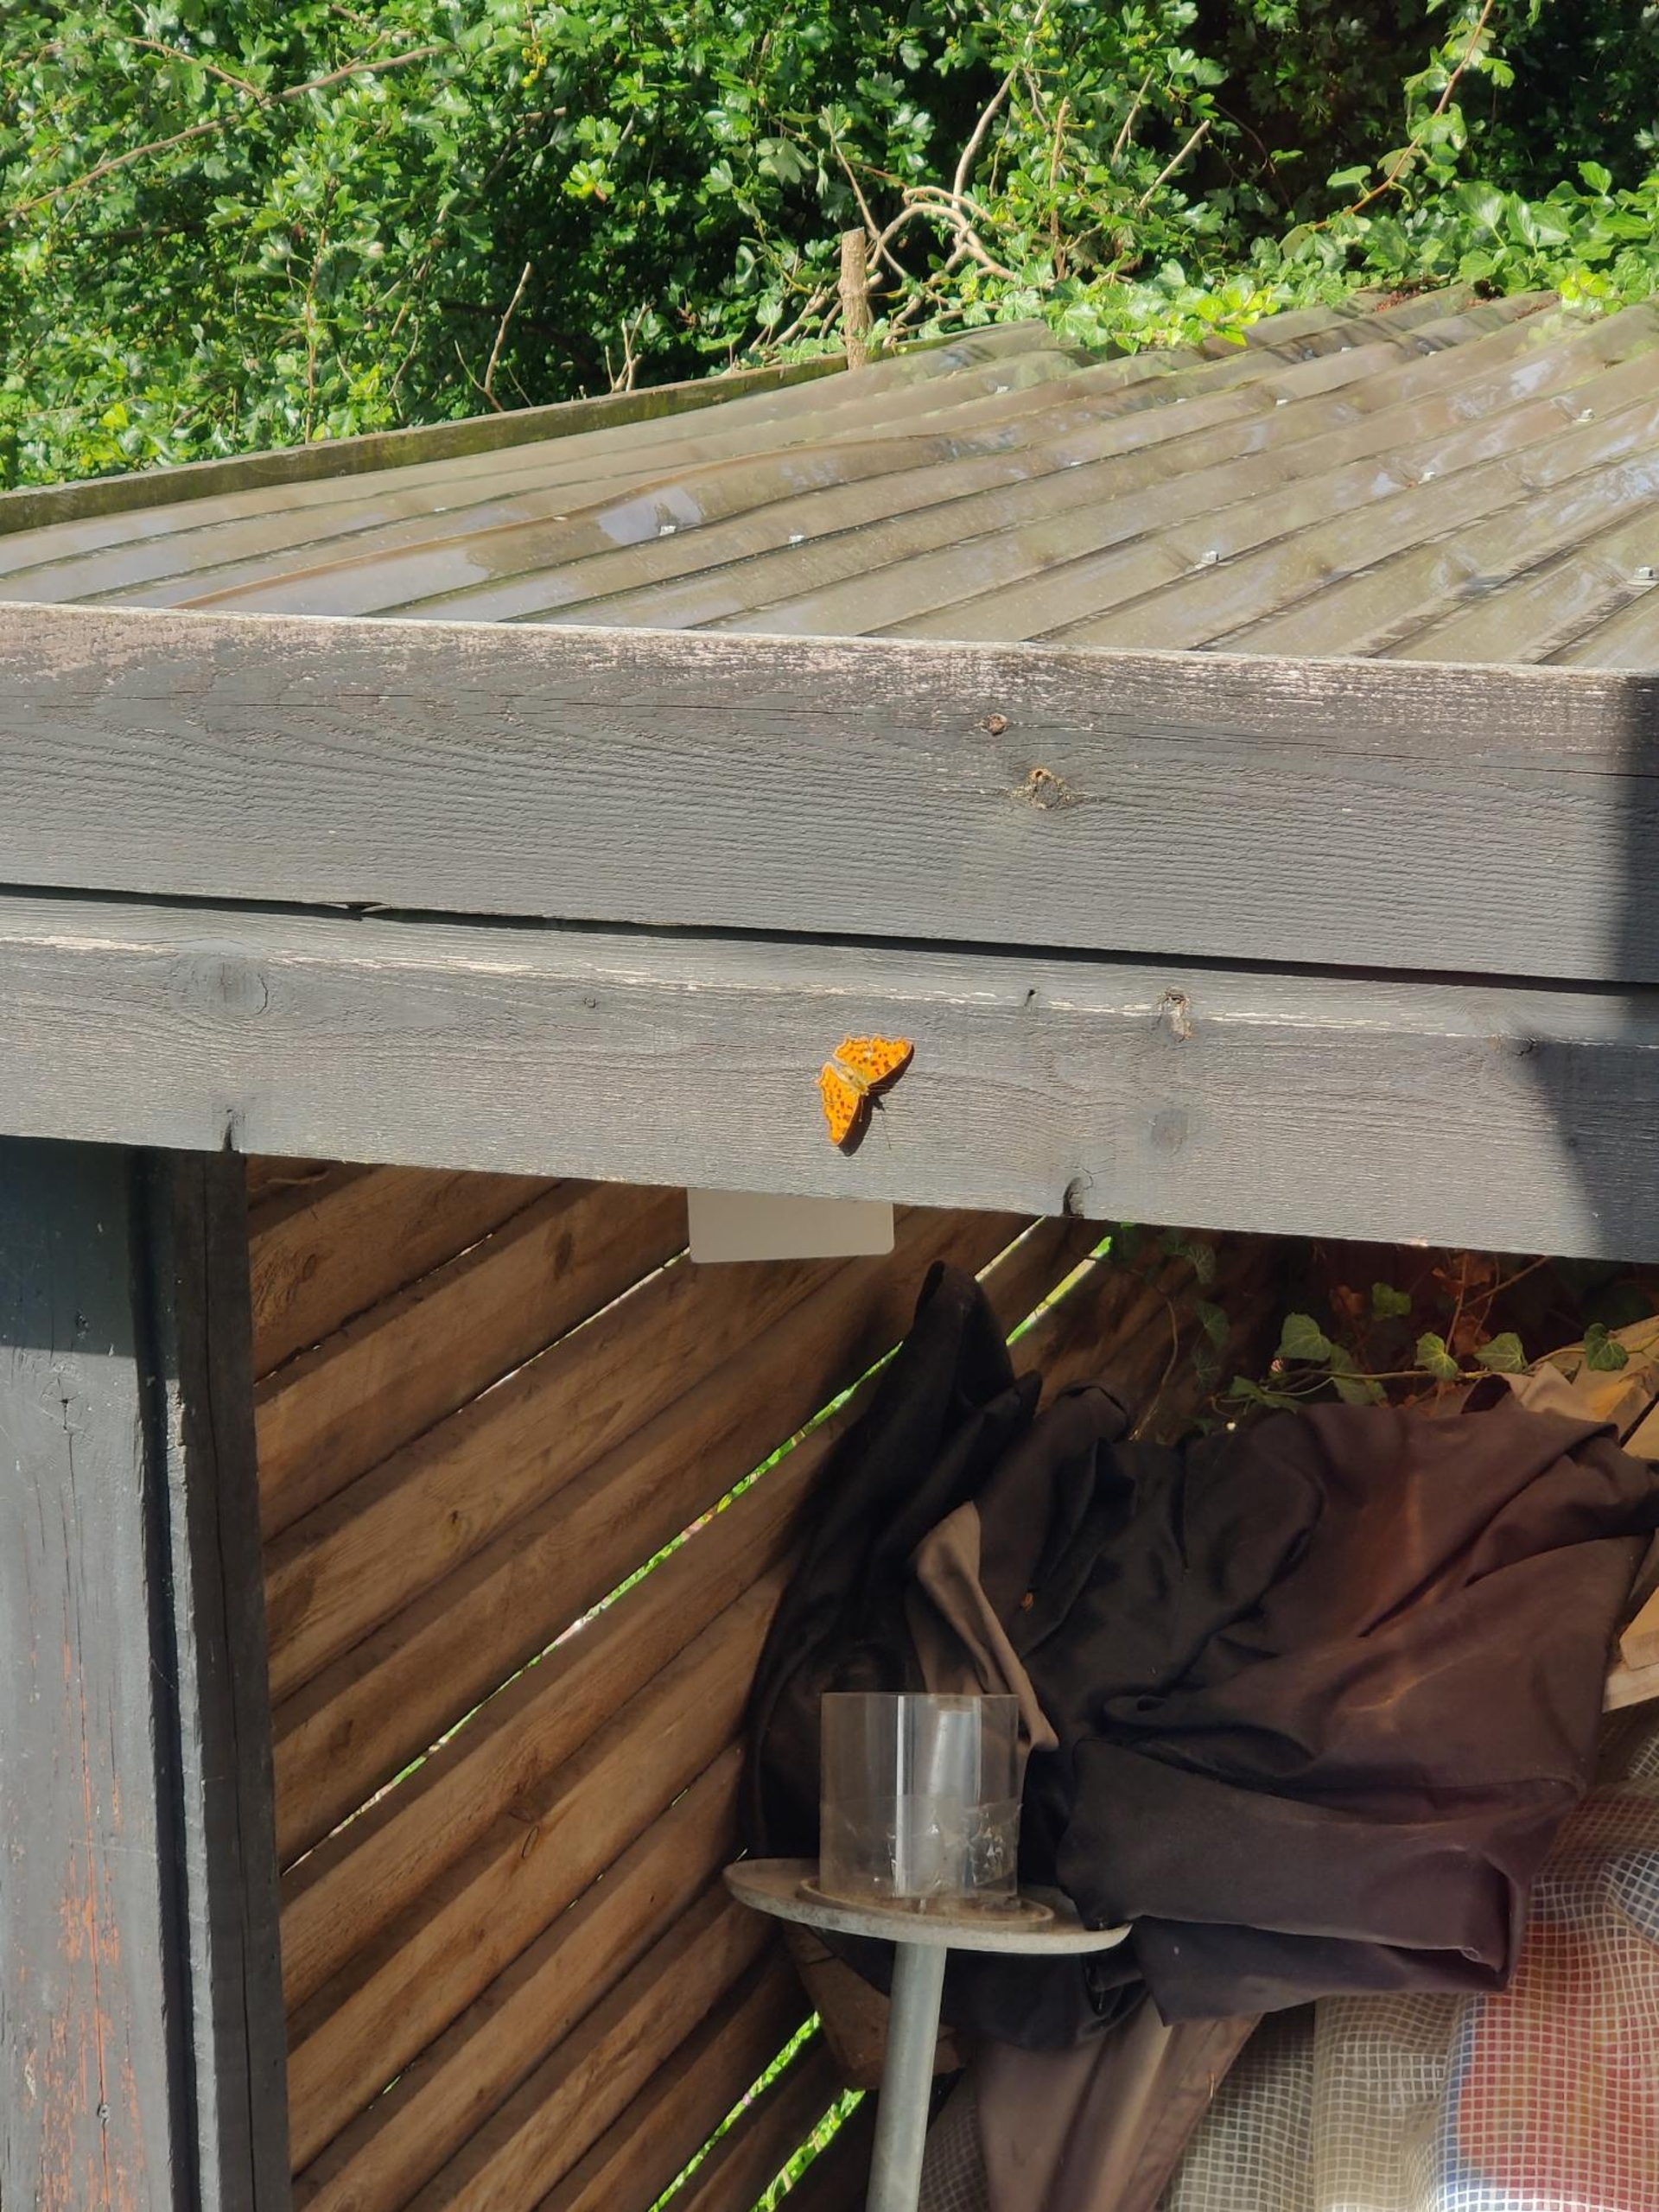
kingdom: Animalia
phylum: Arthropoda
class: Insecta
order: Lepidoptera
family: Nymphalidae
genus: Polygonia
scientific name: Polygonia c-album
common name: Det hvide C
